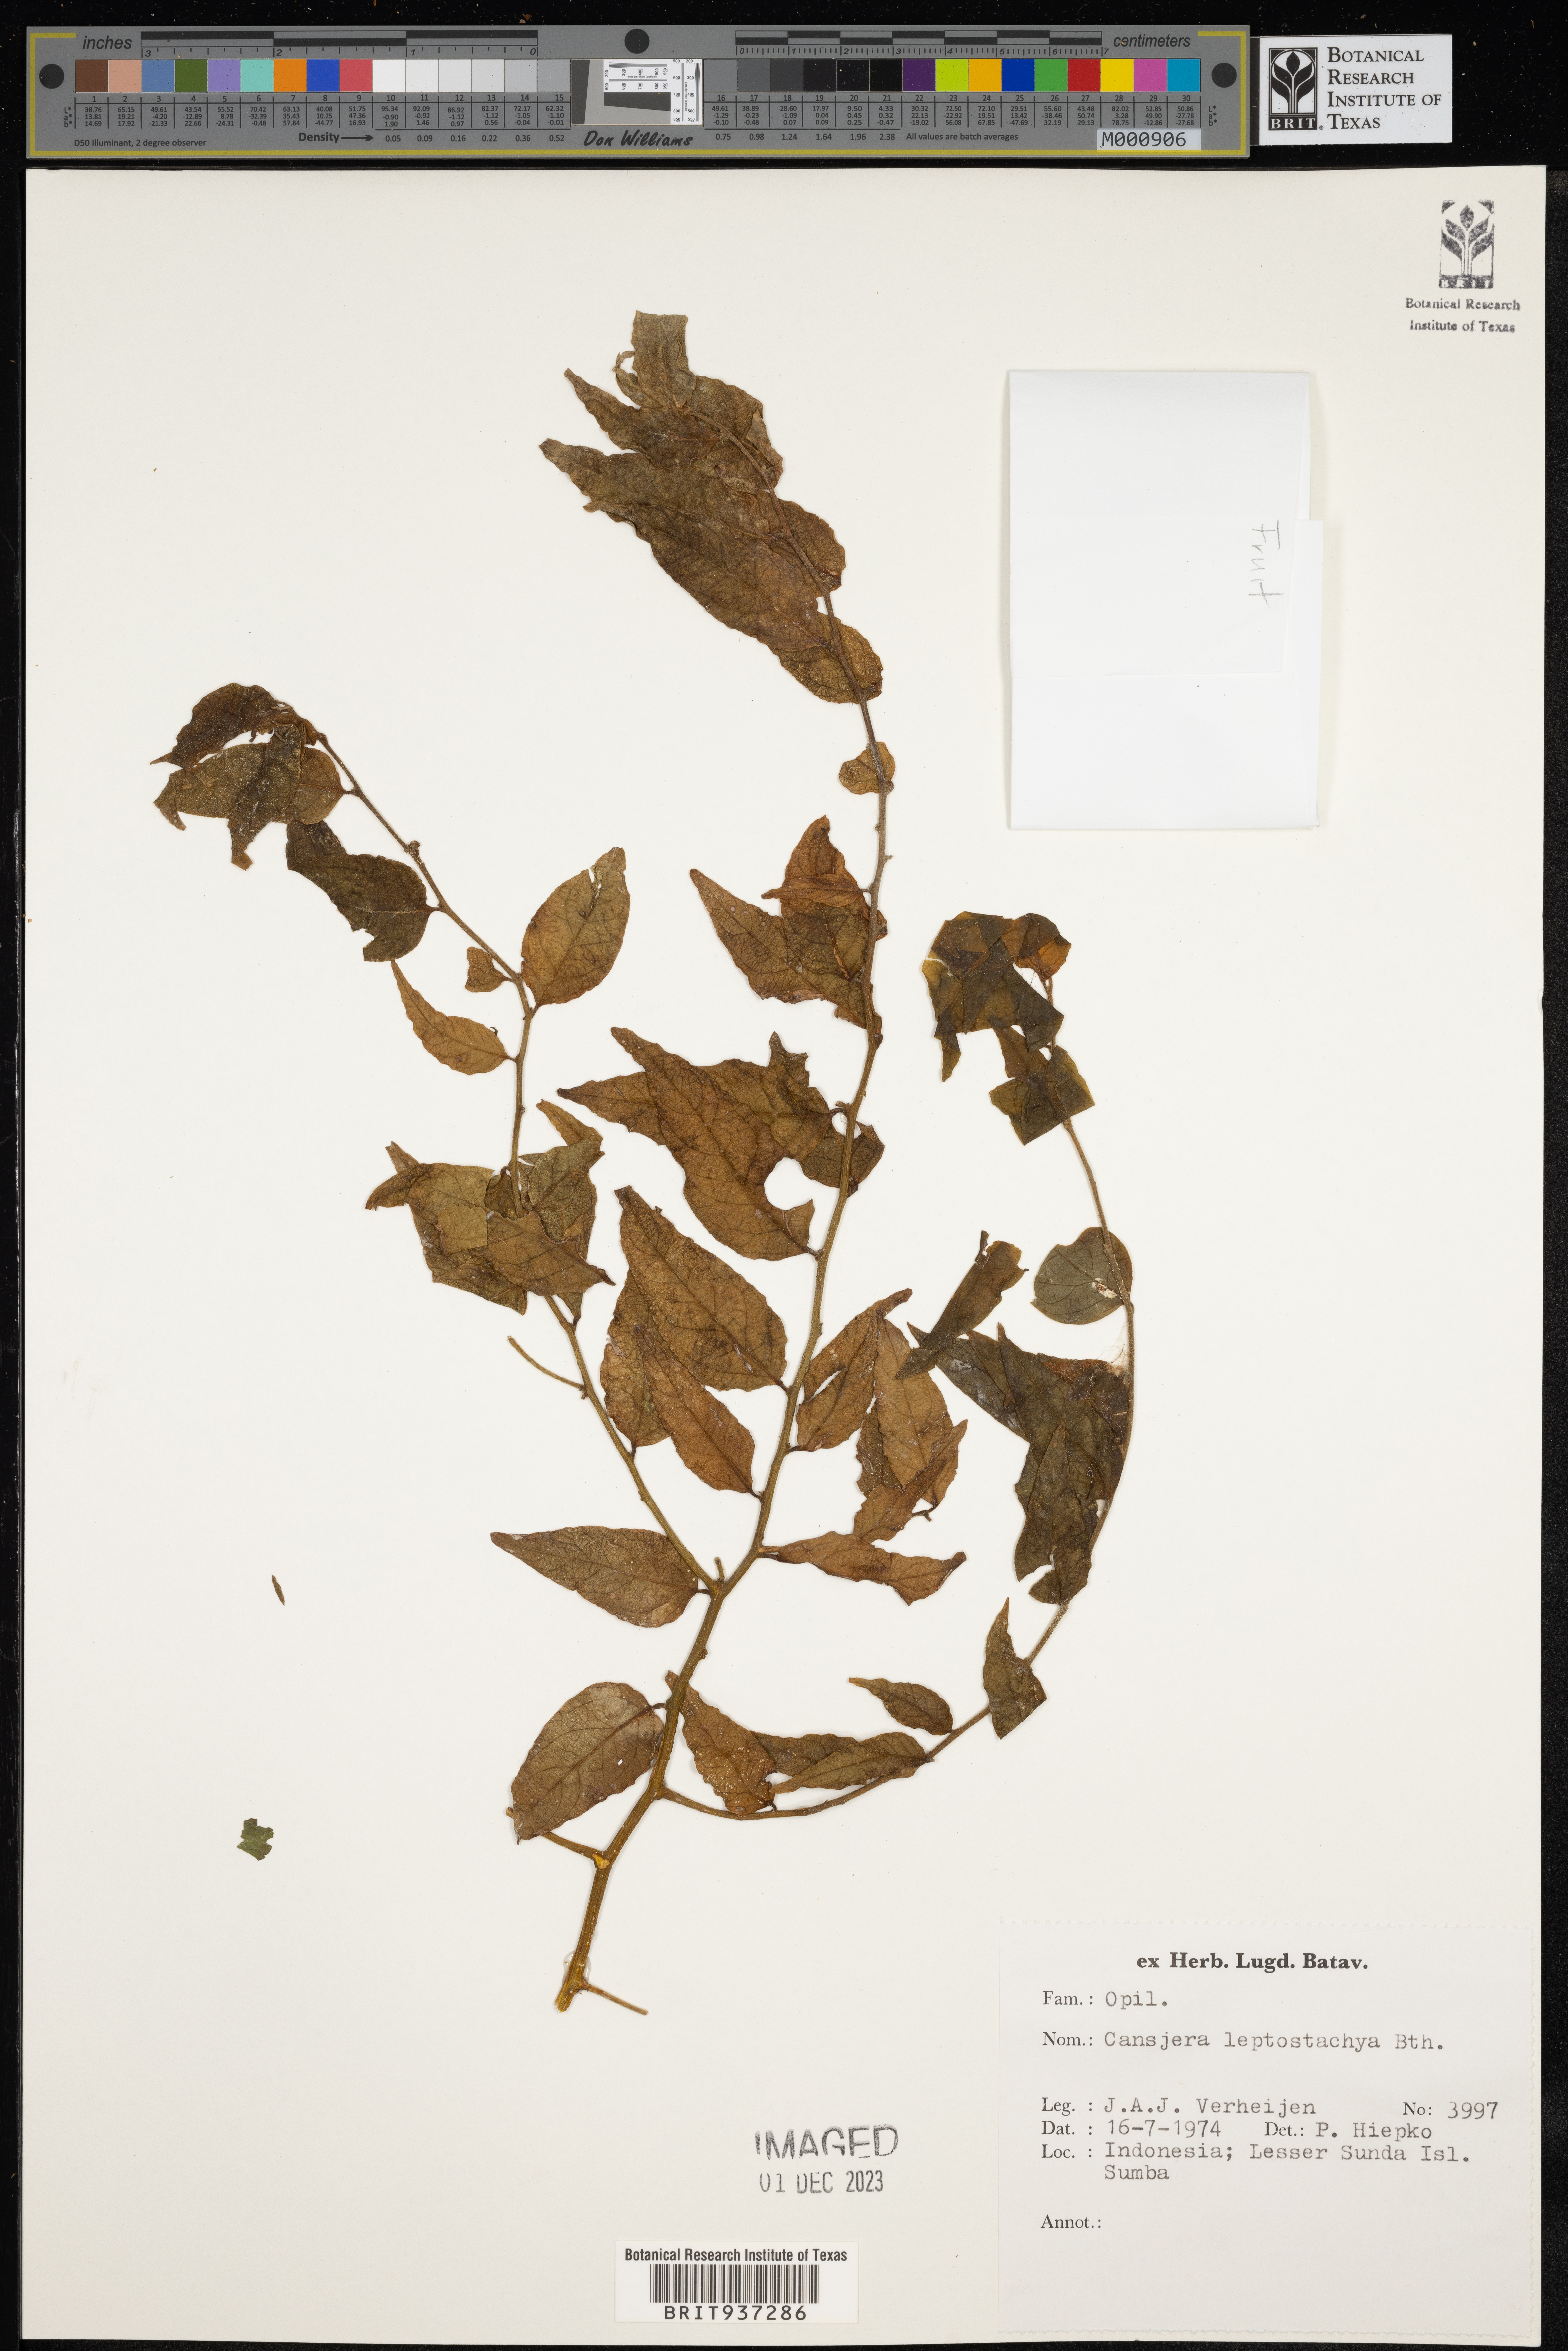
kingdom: Plantae
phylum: Tracheophyta
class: Magnoliopsida
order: Santalales
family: Opiliaceae
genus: Cansjera
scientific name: Cansjera
